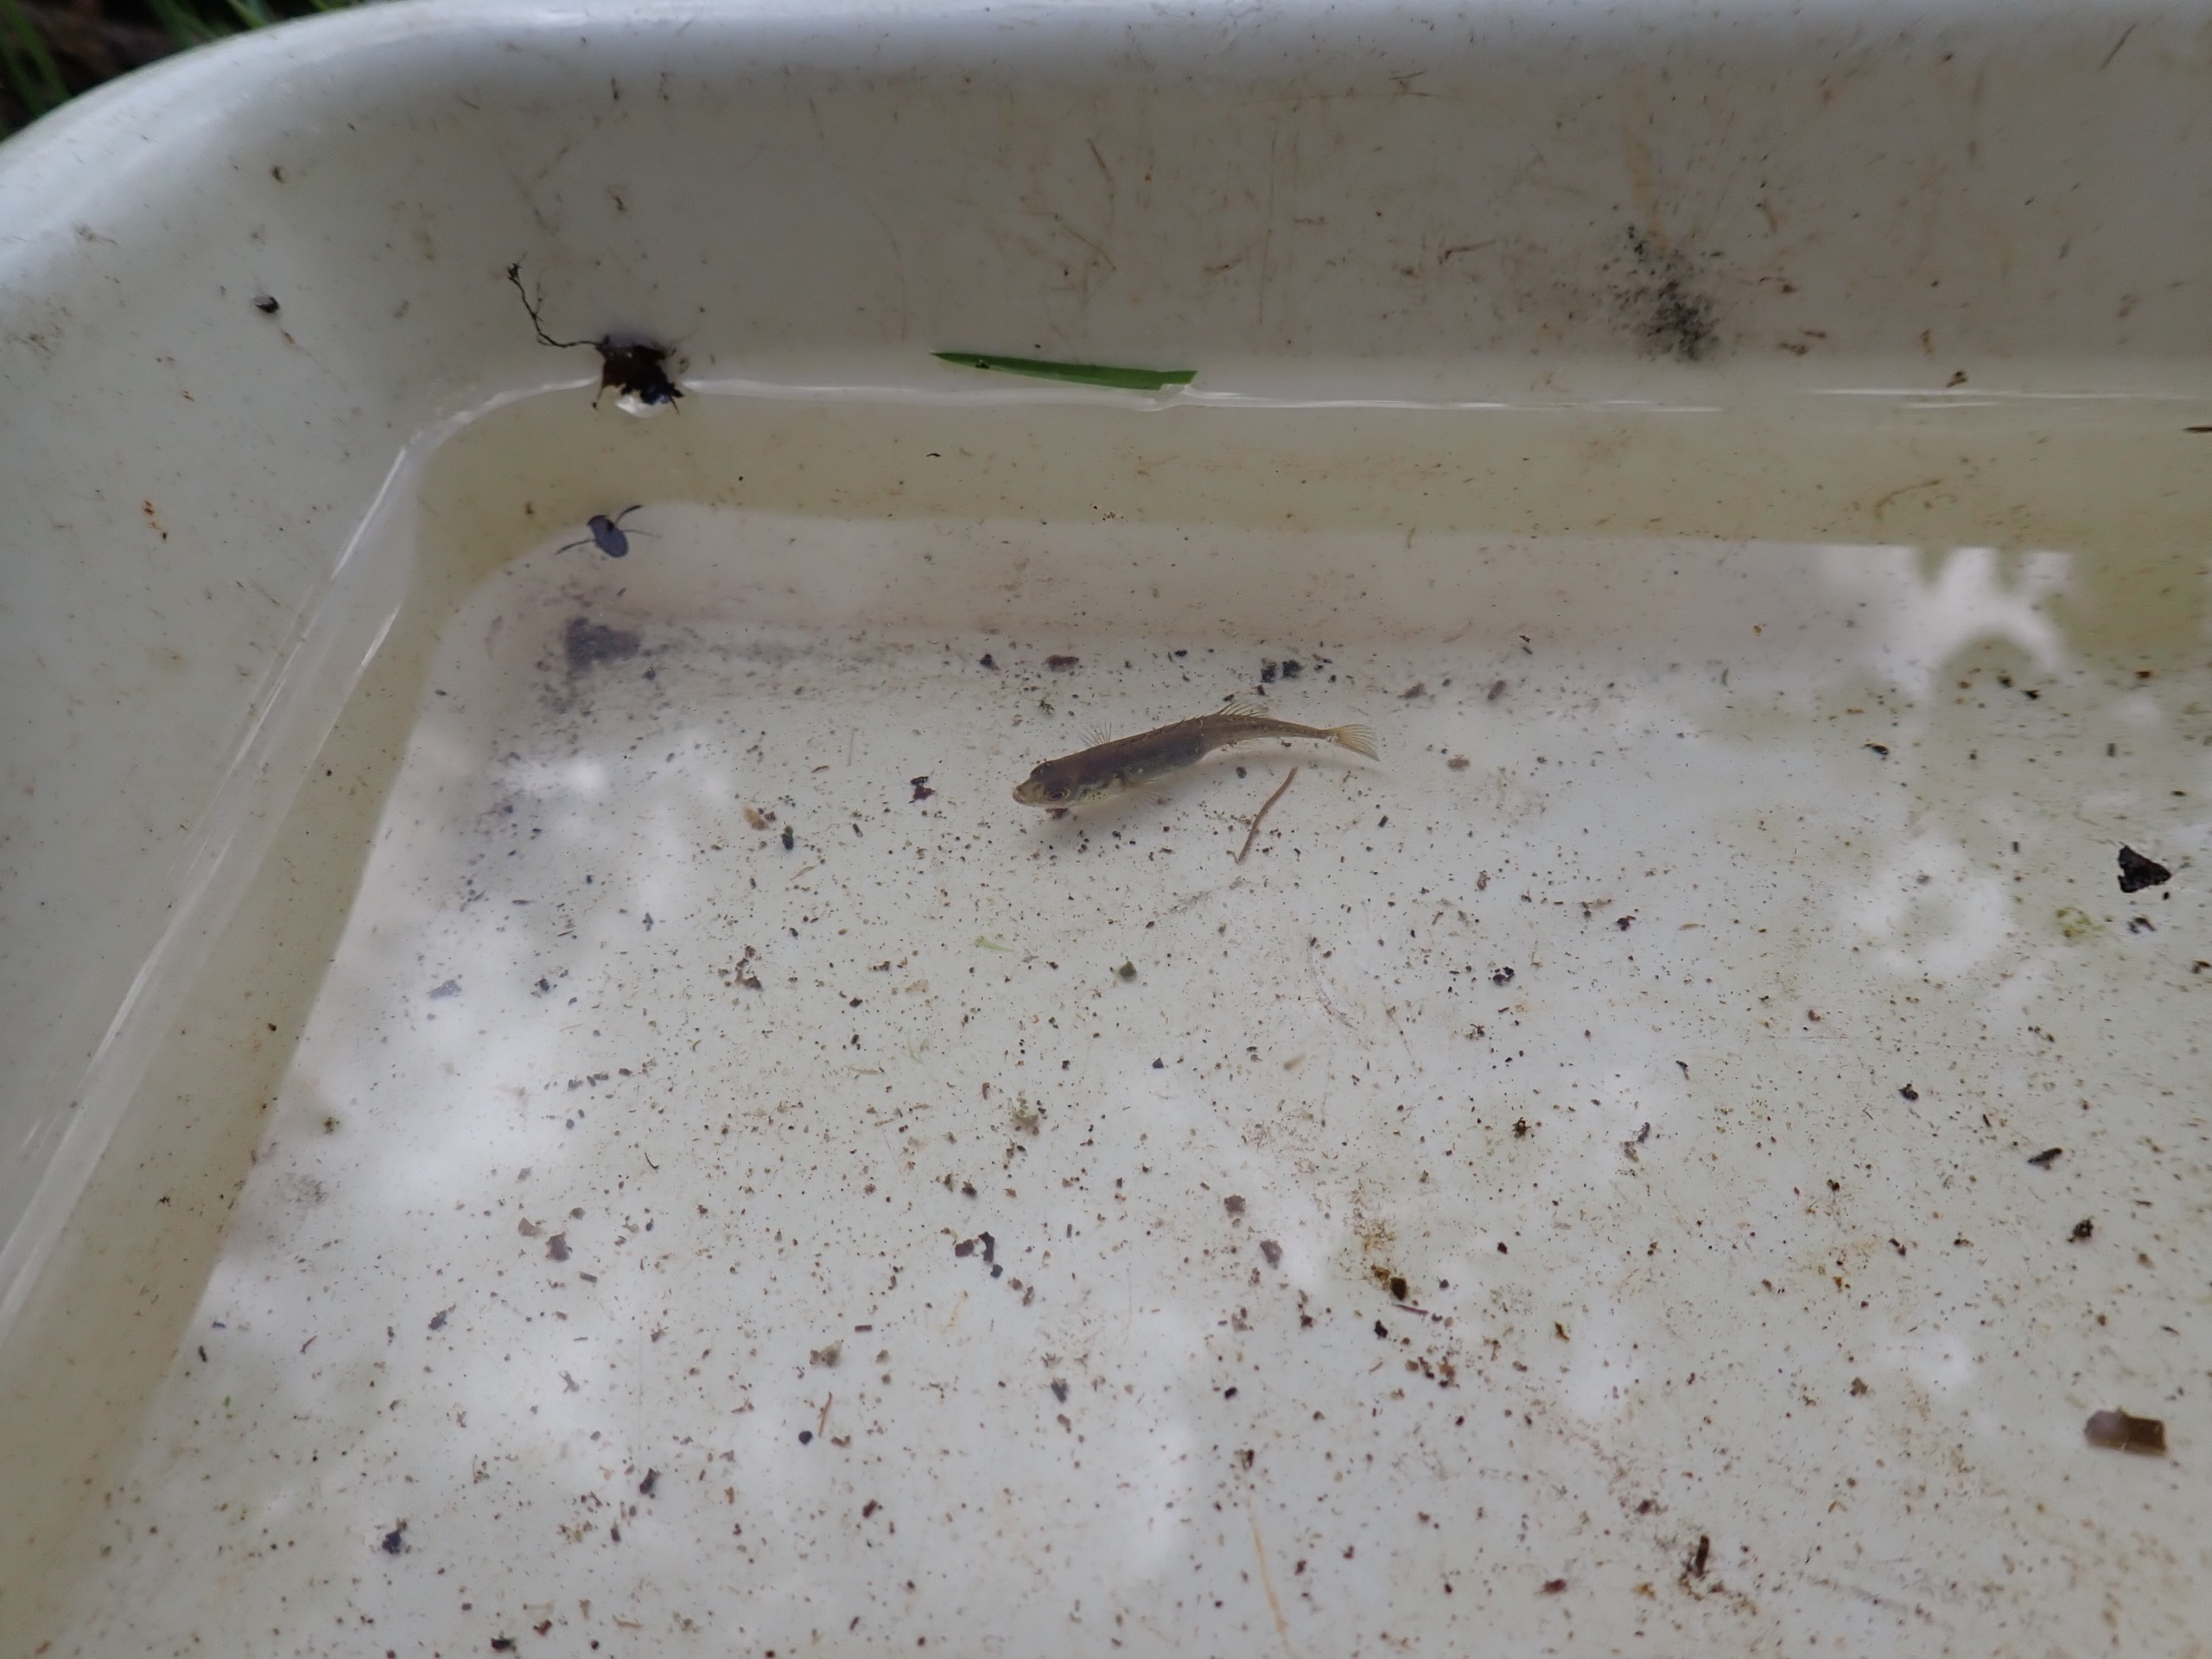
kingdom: Animalia
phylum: Chordata
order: Gasterosteiformes
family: Gasterosteidae
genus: Pungitius
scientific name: Pungitius pungitius
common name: Nipigget hundestejle
